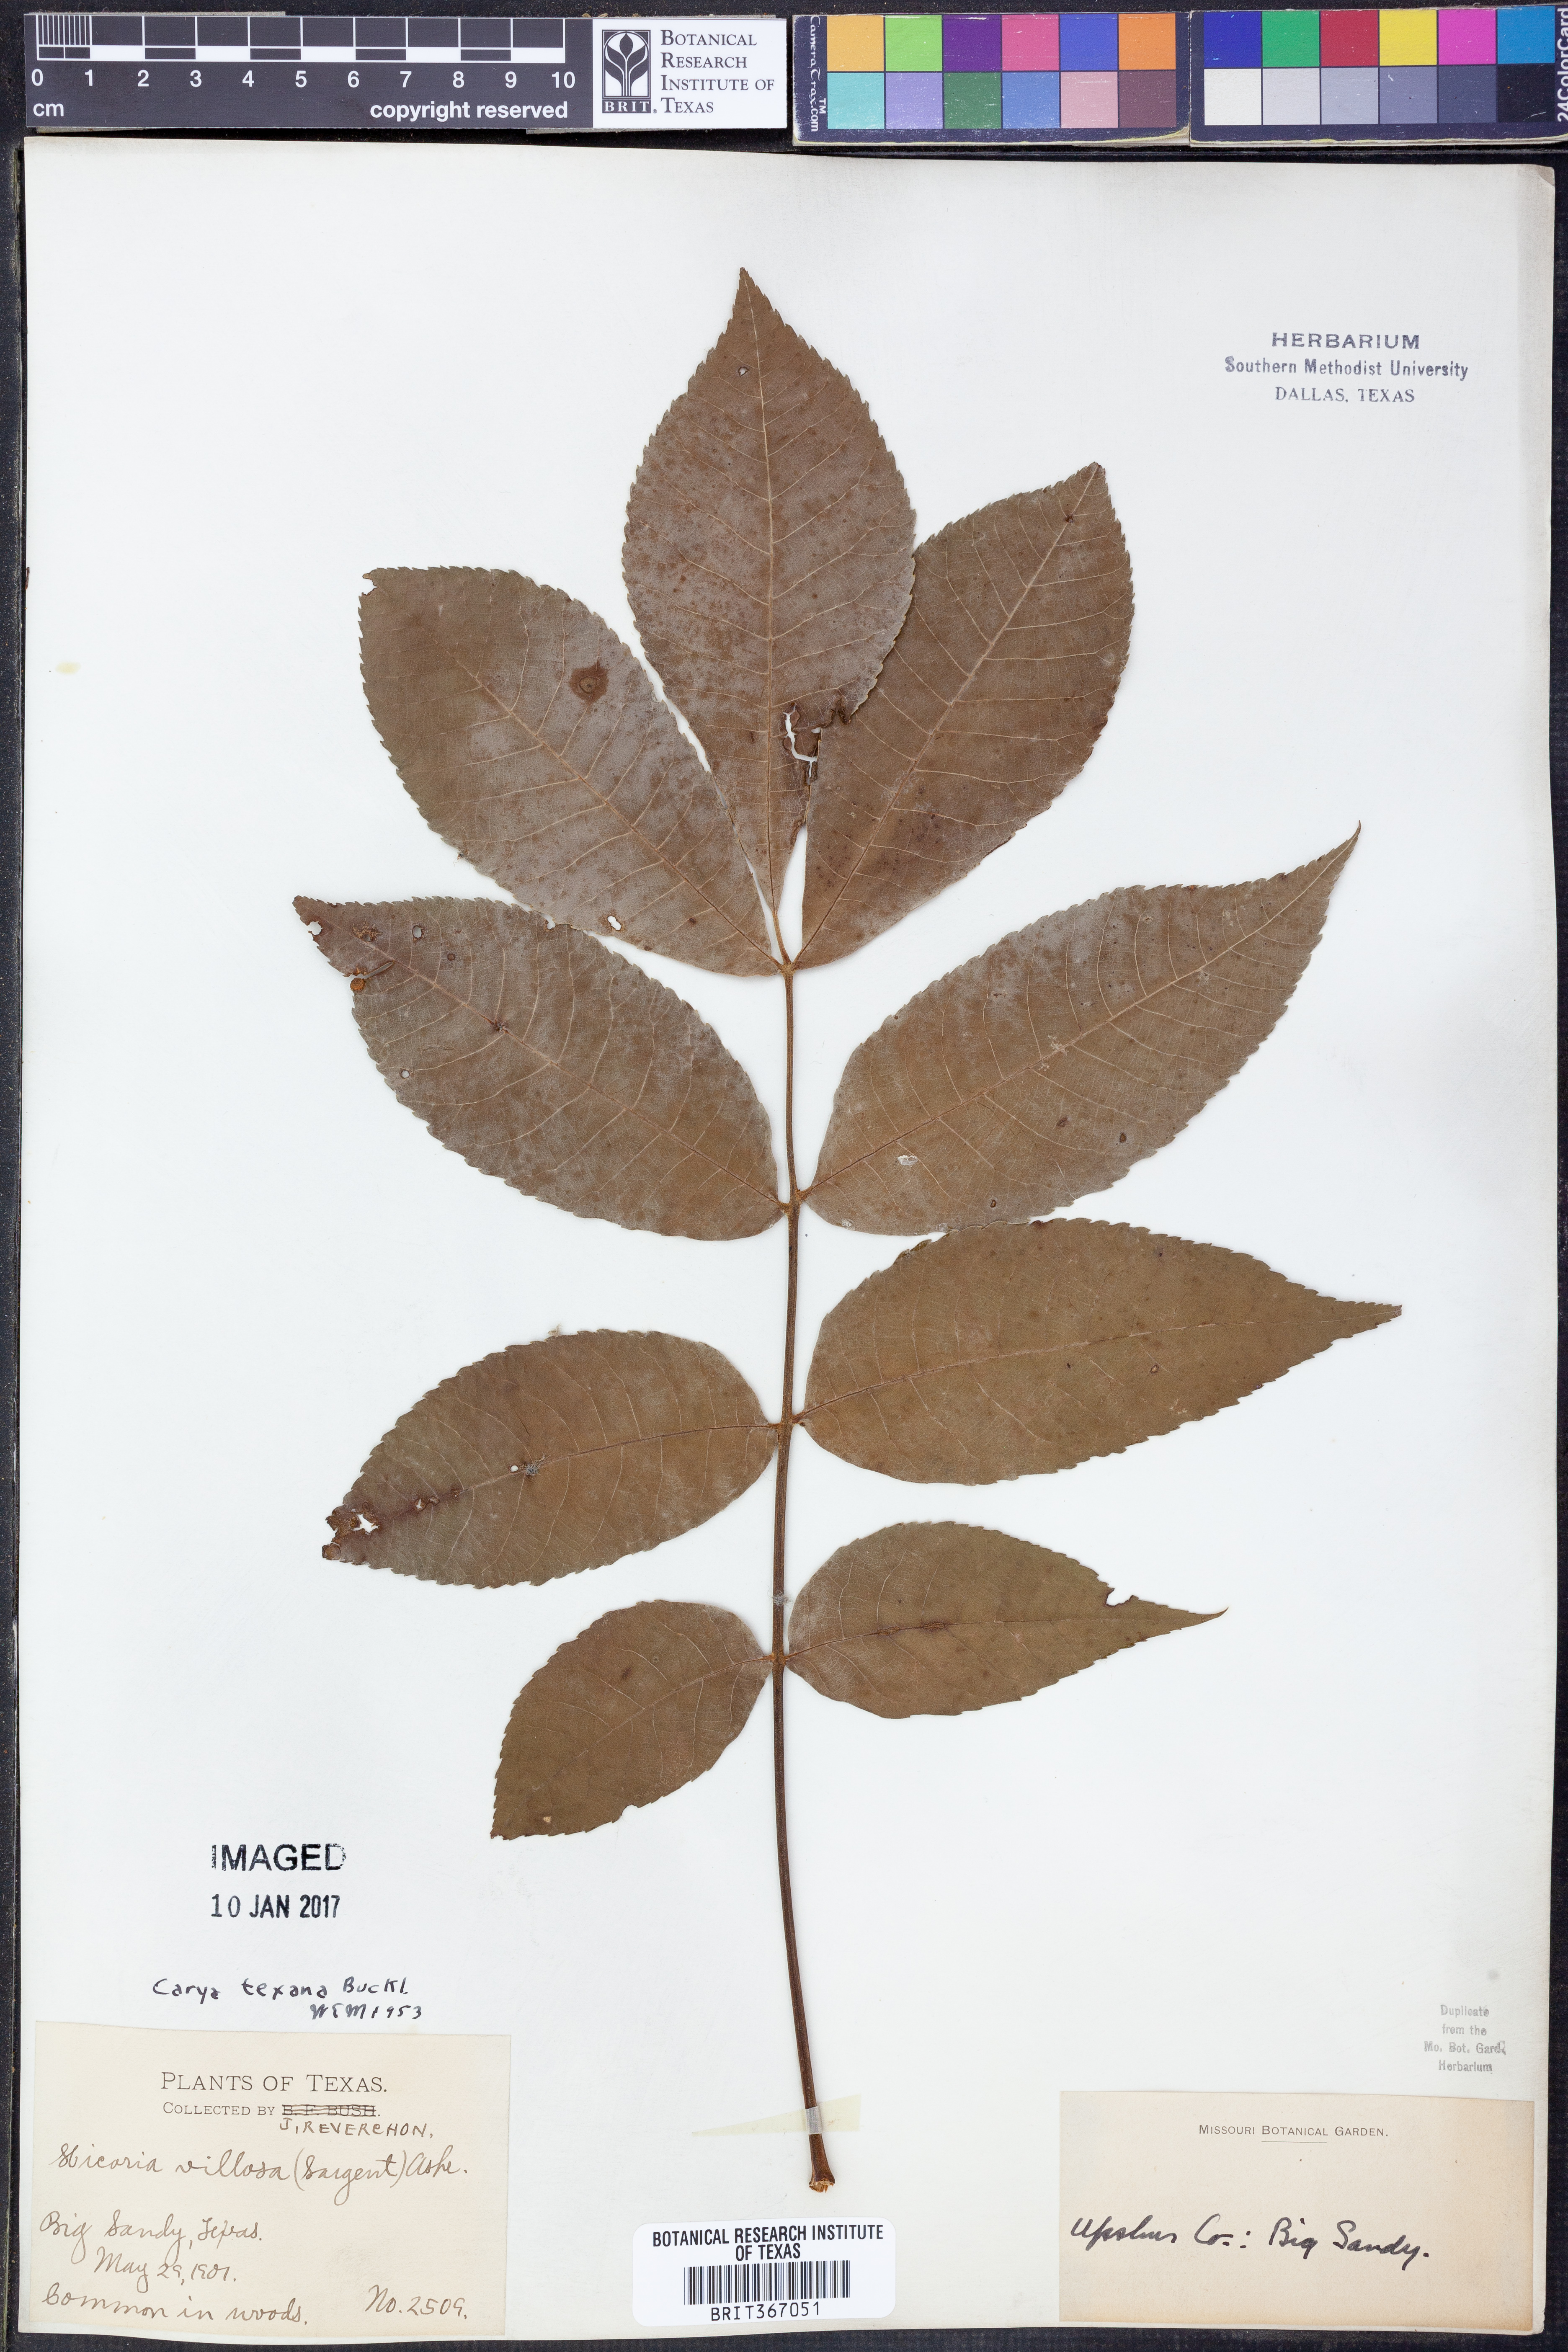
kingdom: Plantae
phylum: Tracheophyta
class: Magnoliopsida
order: Fagales
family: Juglandaceae
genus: Carya
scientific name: Carya texana
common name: Black hickory
